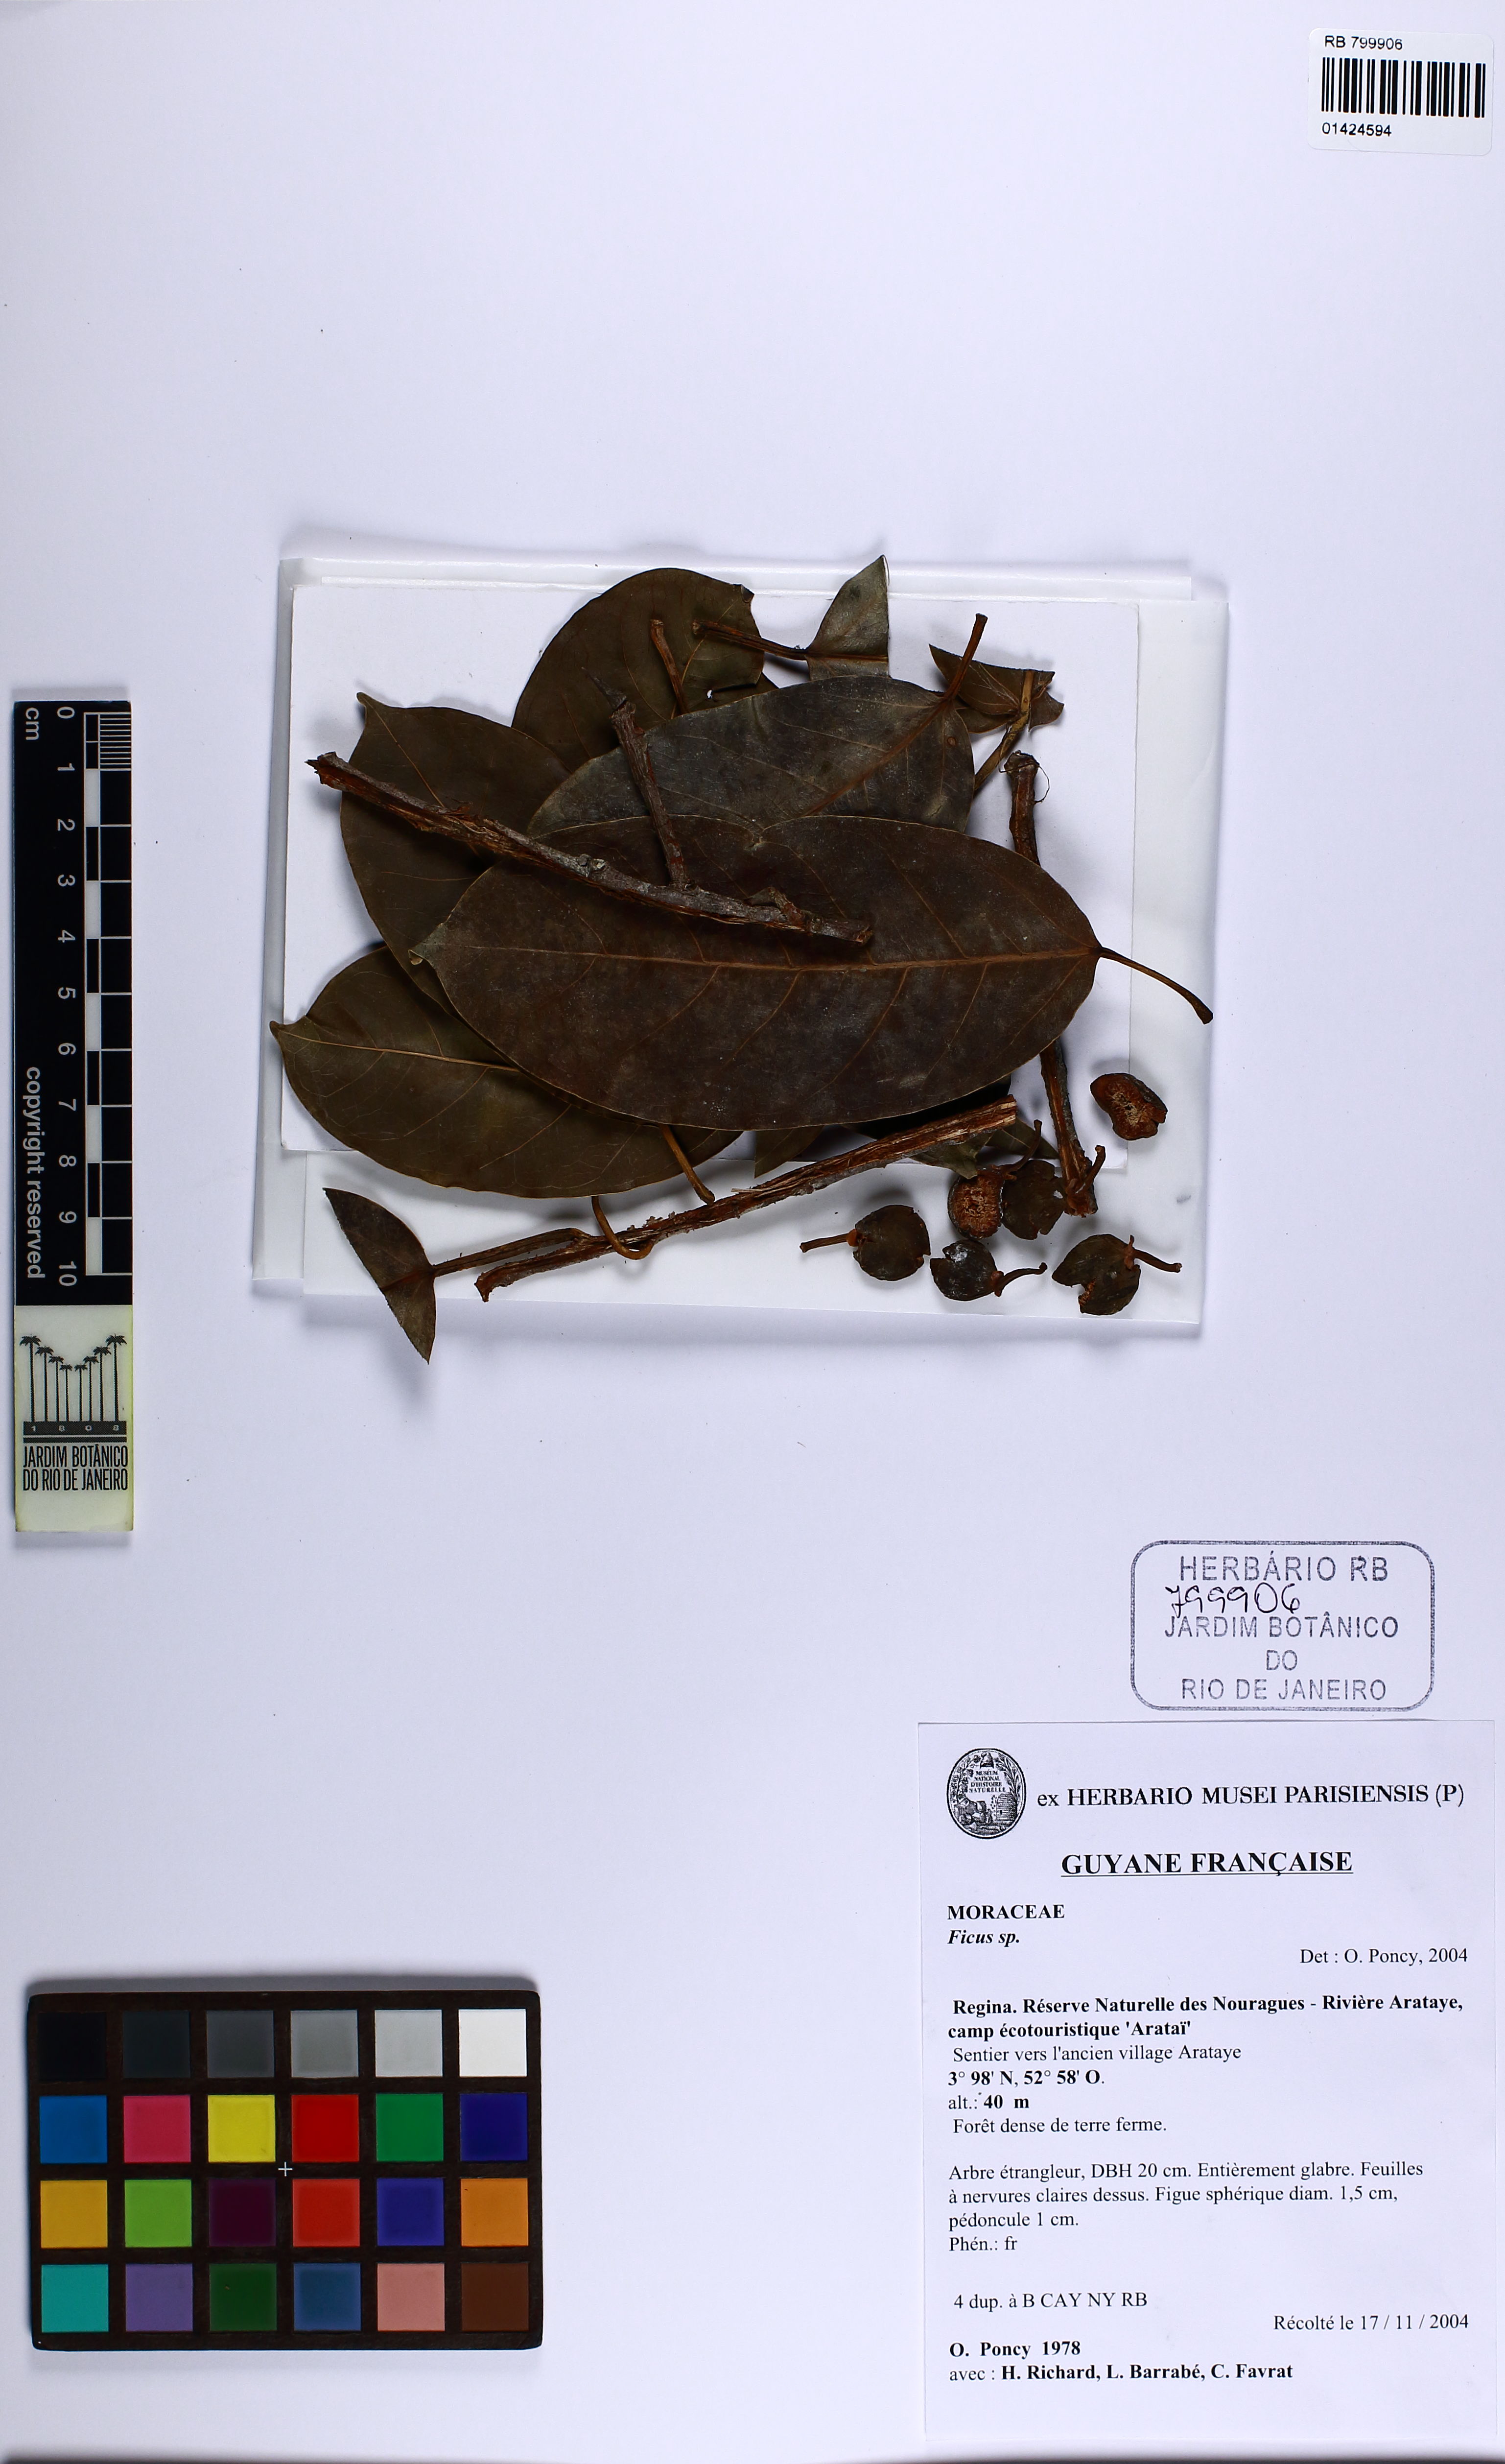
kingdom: Plantae
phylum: Tracheophyta
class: Magnoliopsida
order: Rosales
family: Moraceae
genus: Ficus
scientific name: Ficus
